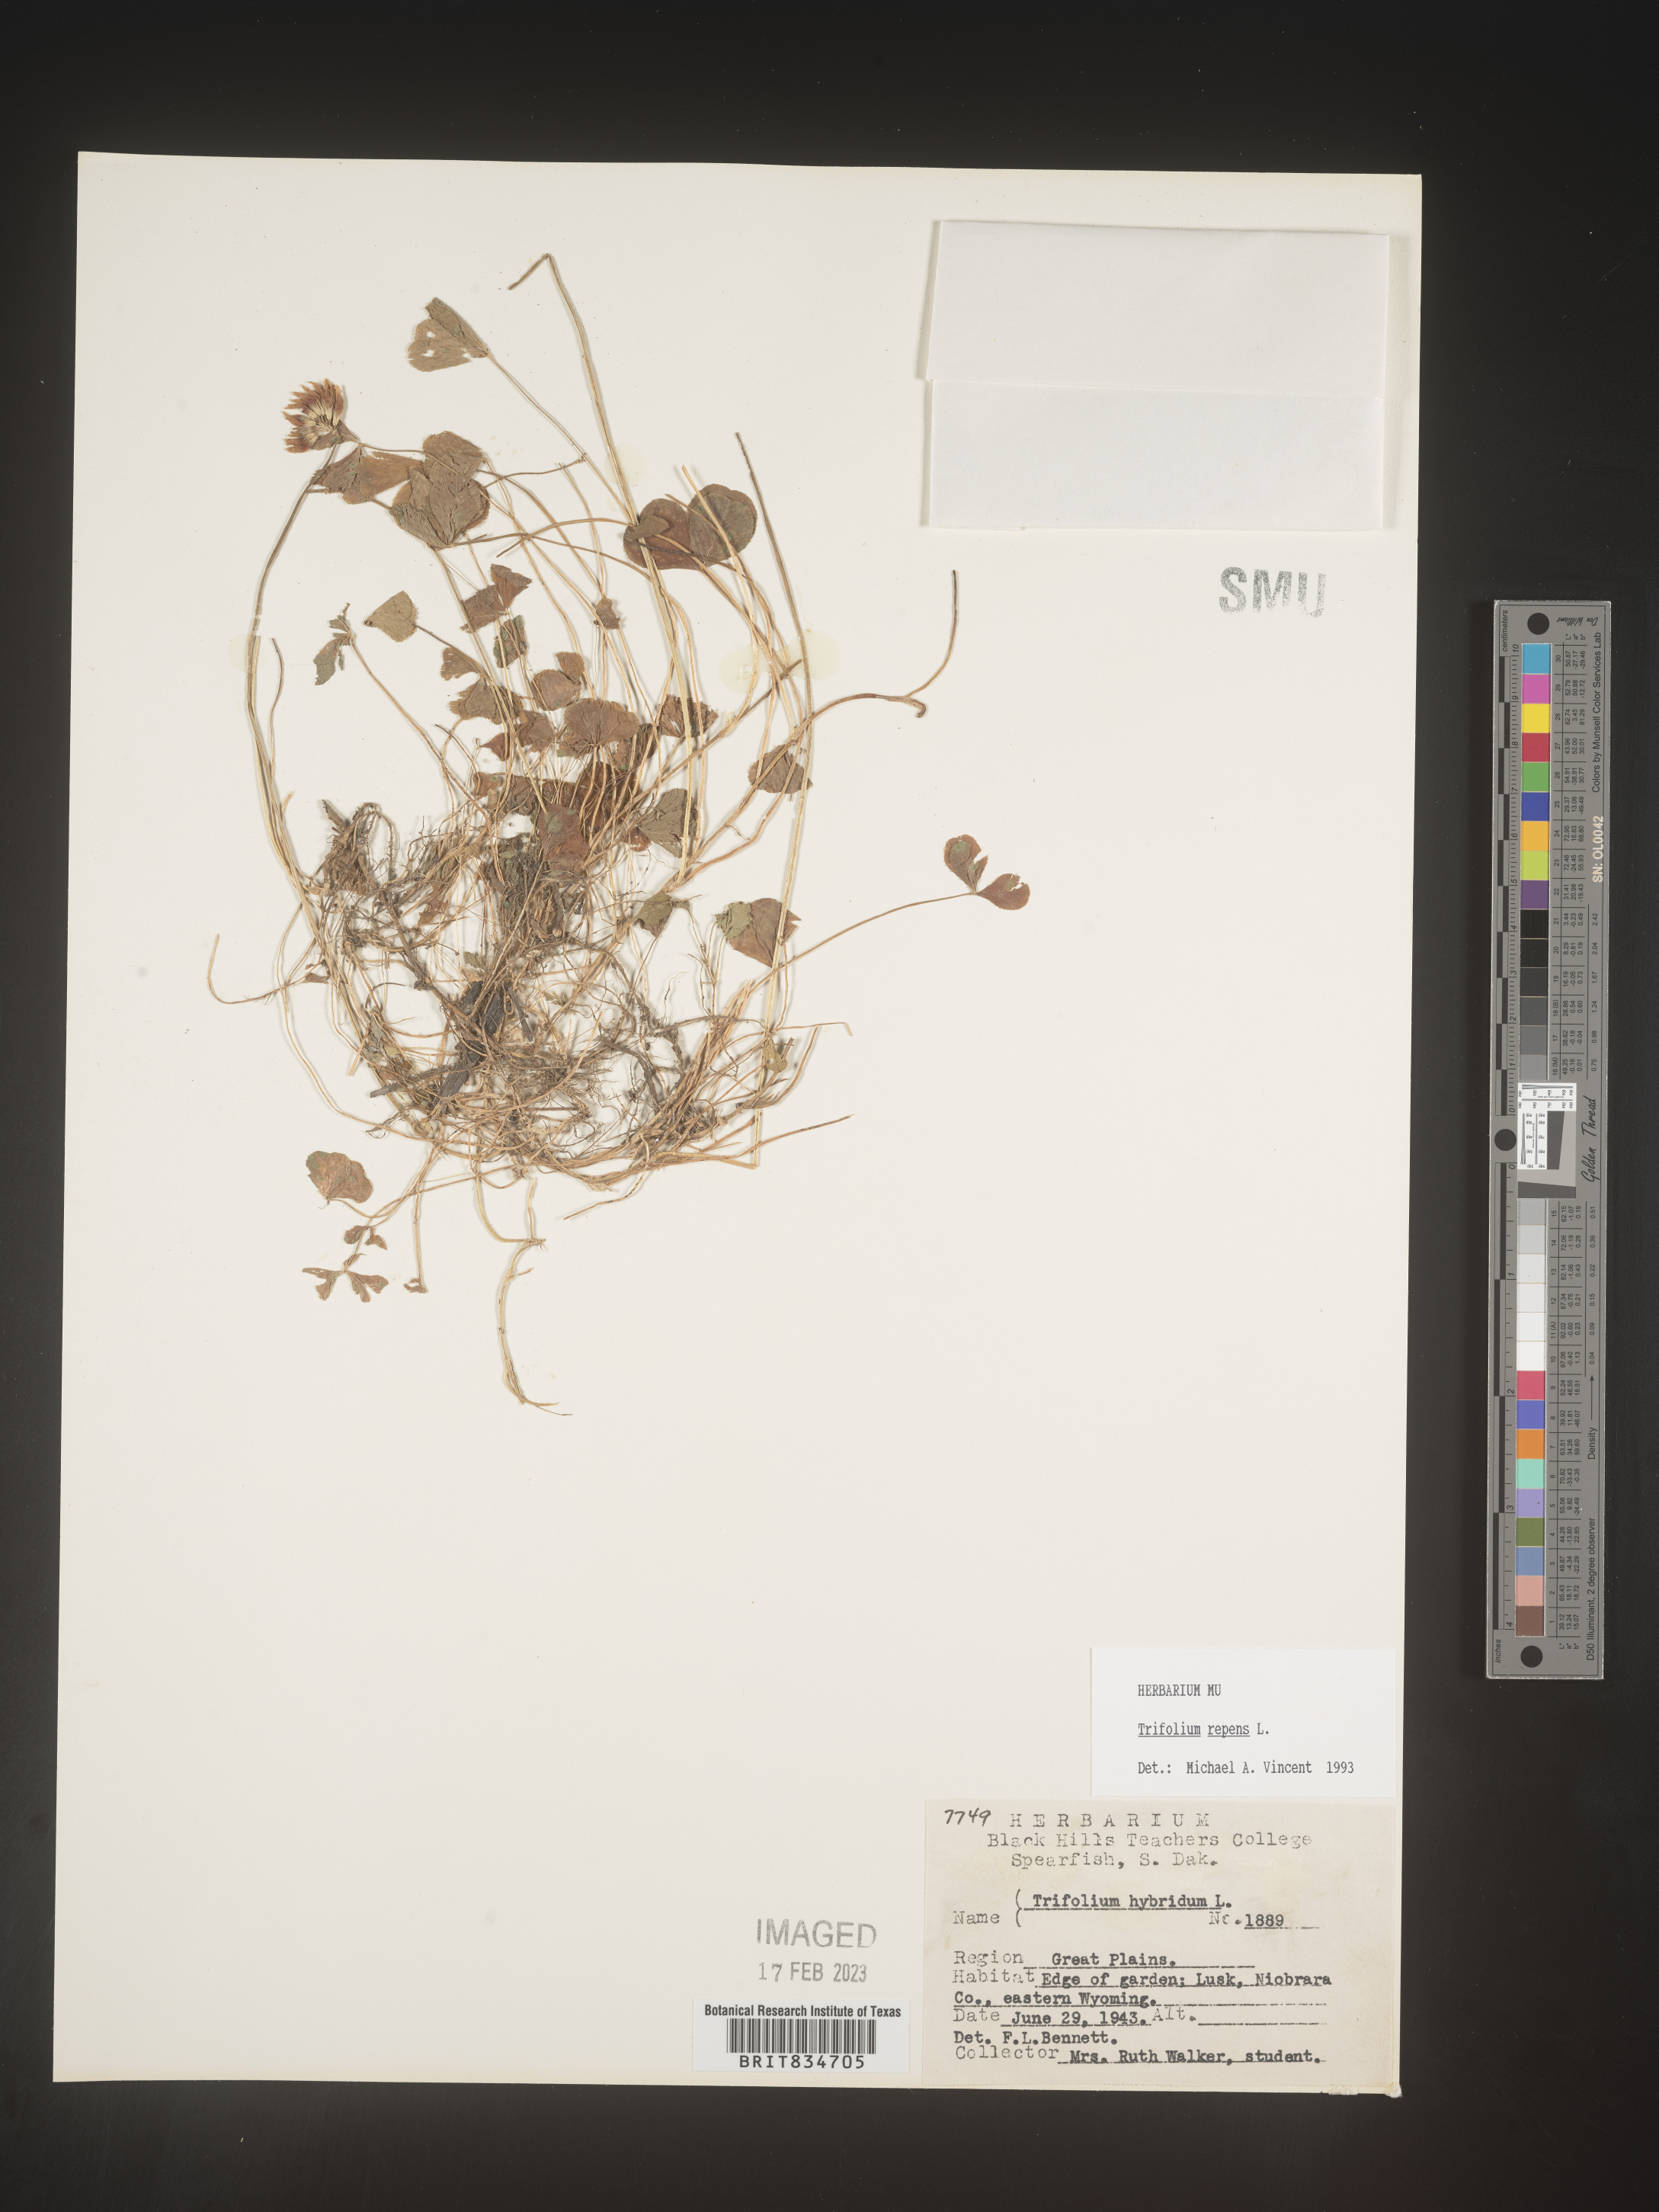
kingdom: Plantae
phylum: Tracheophyta
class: Magnoliopsida
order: Fabales
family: Fabaceae
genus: Trifolium
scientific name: Trifolium repens
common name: White clover
